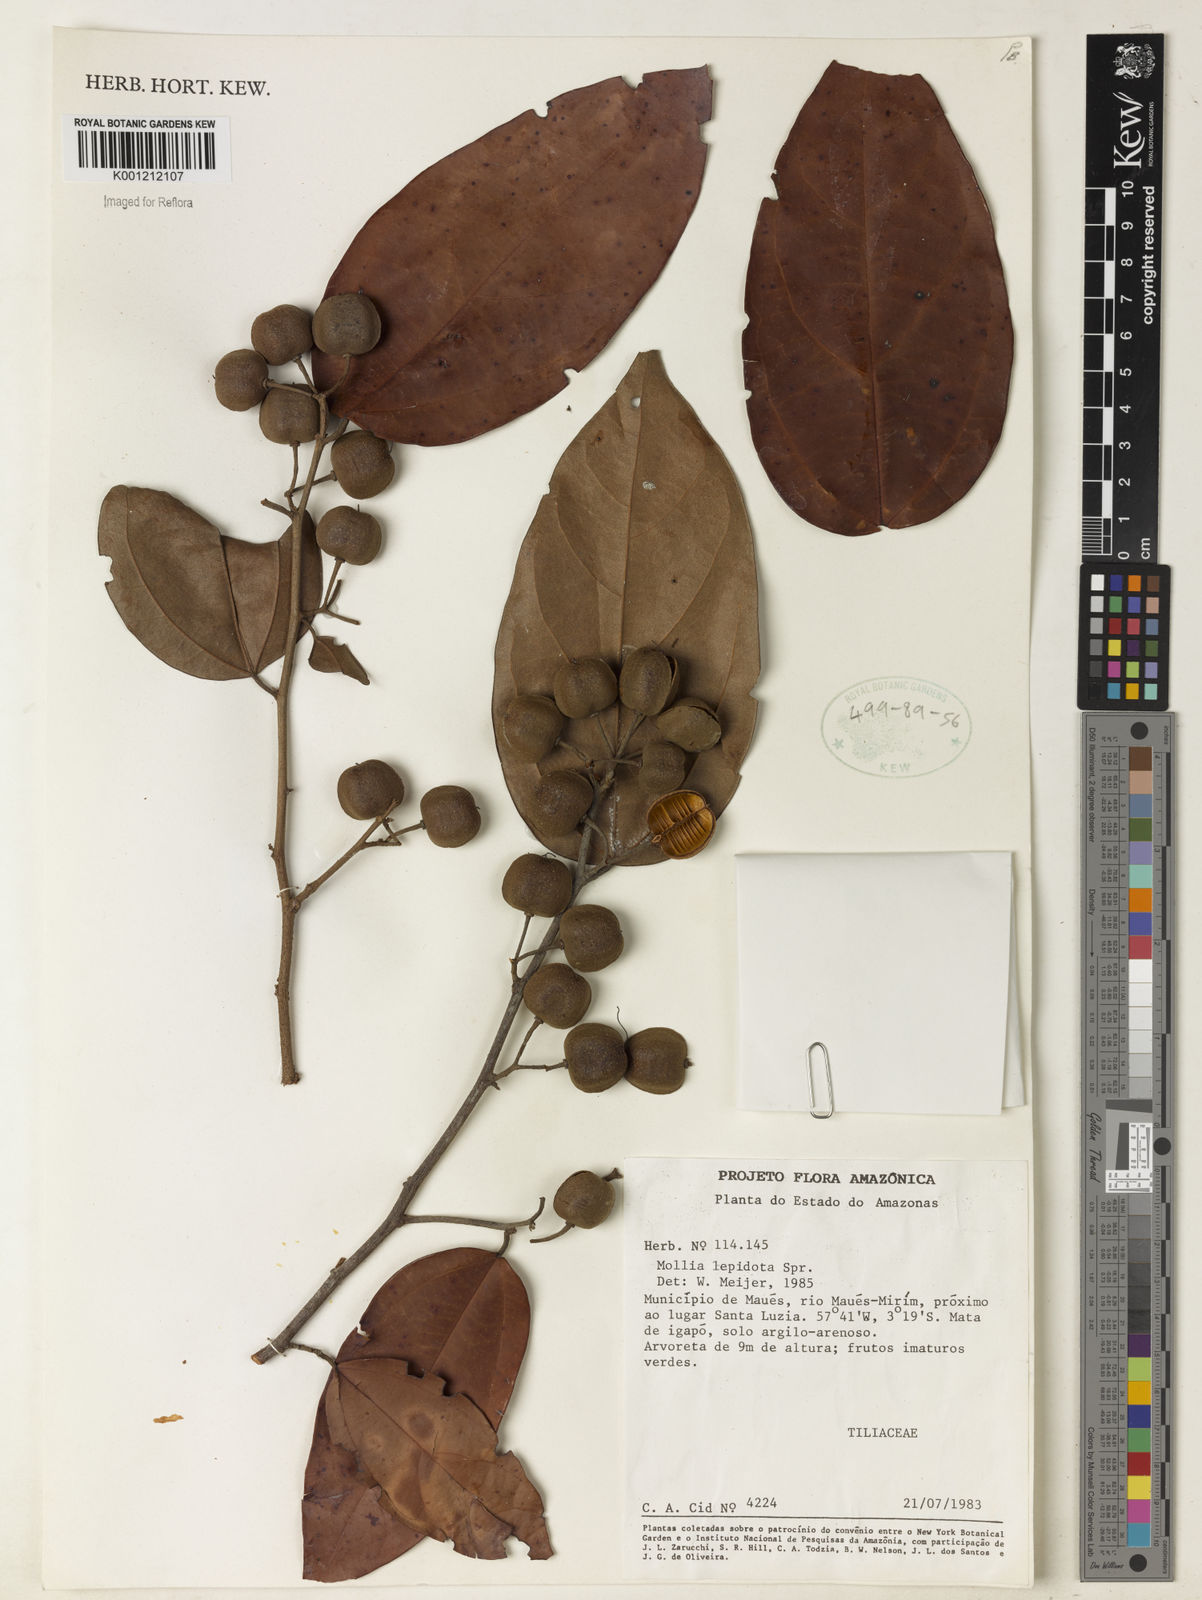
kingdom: Plantae
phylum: Tracheophyta
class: Magnoliopsida
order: Malvales
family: Malvaceae
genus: Mollia
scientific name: Mollia lepidota
